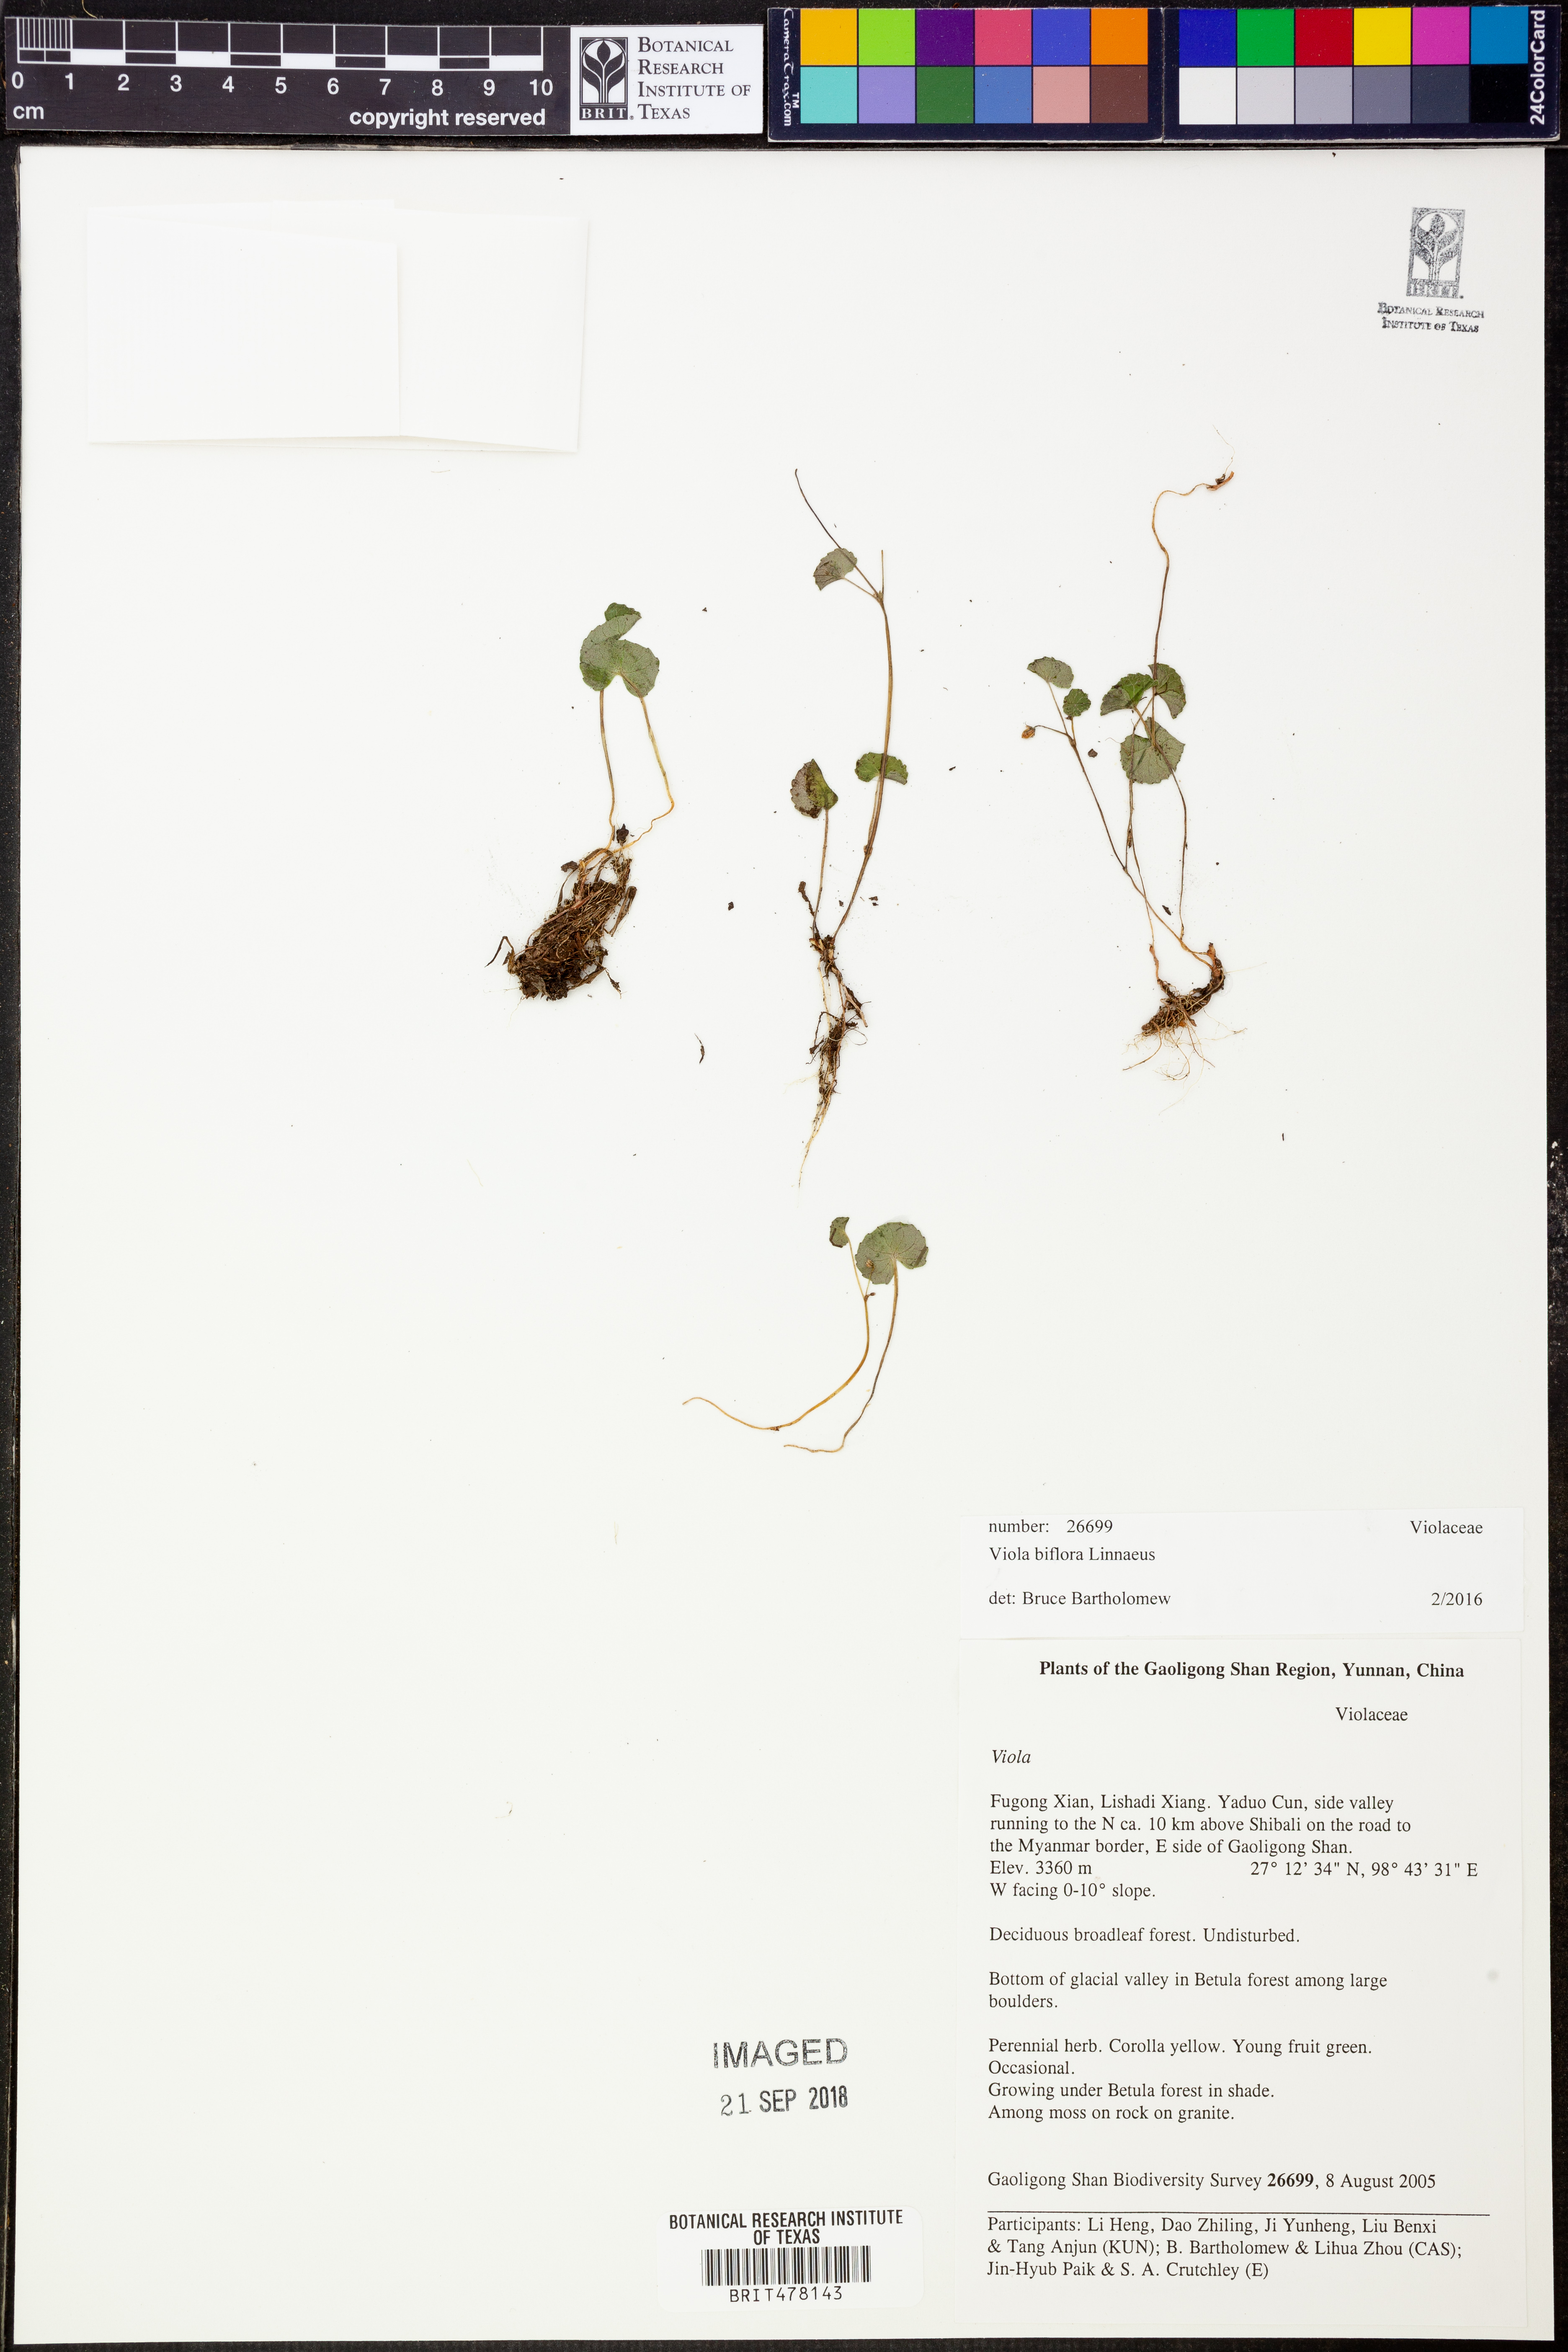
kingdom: Plantae
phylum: Tracheophyta
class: Magnoliopsida
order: Malpighiales
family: Violaceae
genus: Viola
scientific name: Viola biflora
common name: Alpine yellow violet
